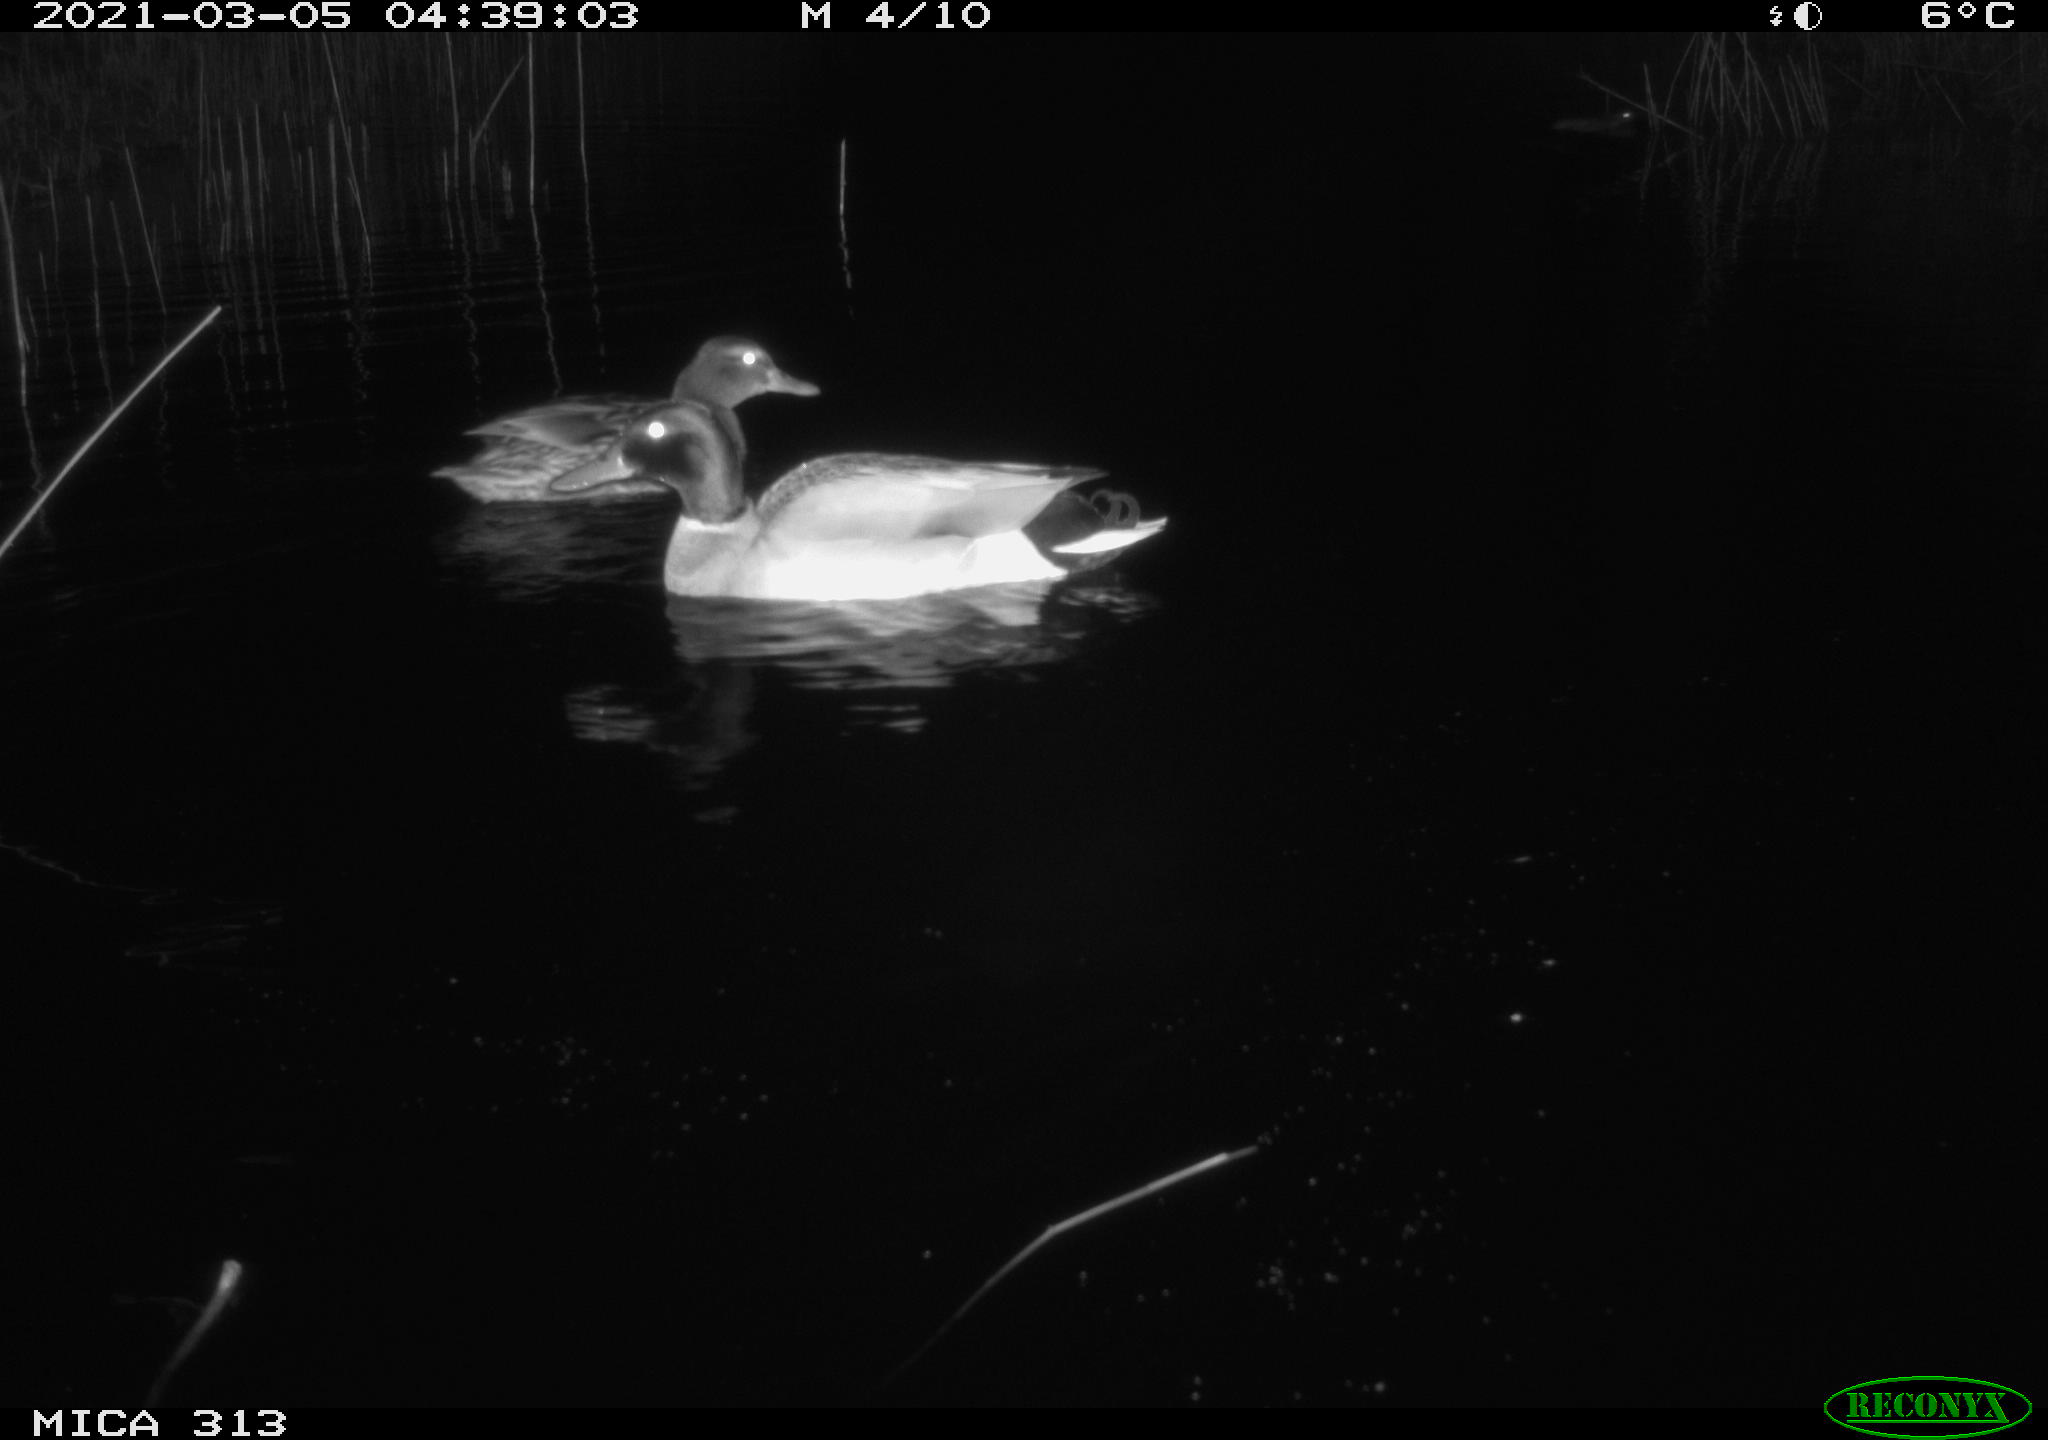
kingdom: Animalia
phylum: Chordata
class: Aves
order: Anseriformes
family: Anatidae
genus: Anas
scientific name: Anas platyrhynchos
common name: Mallard
